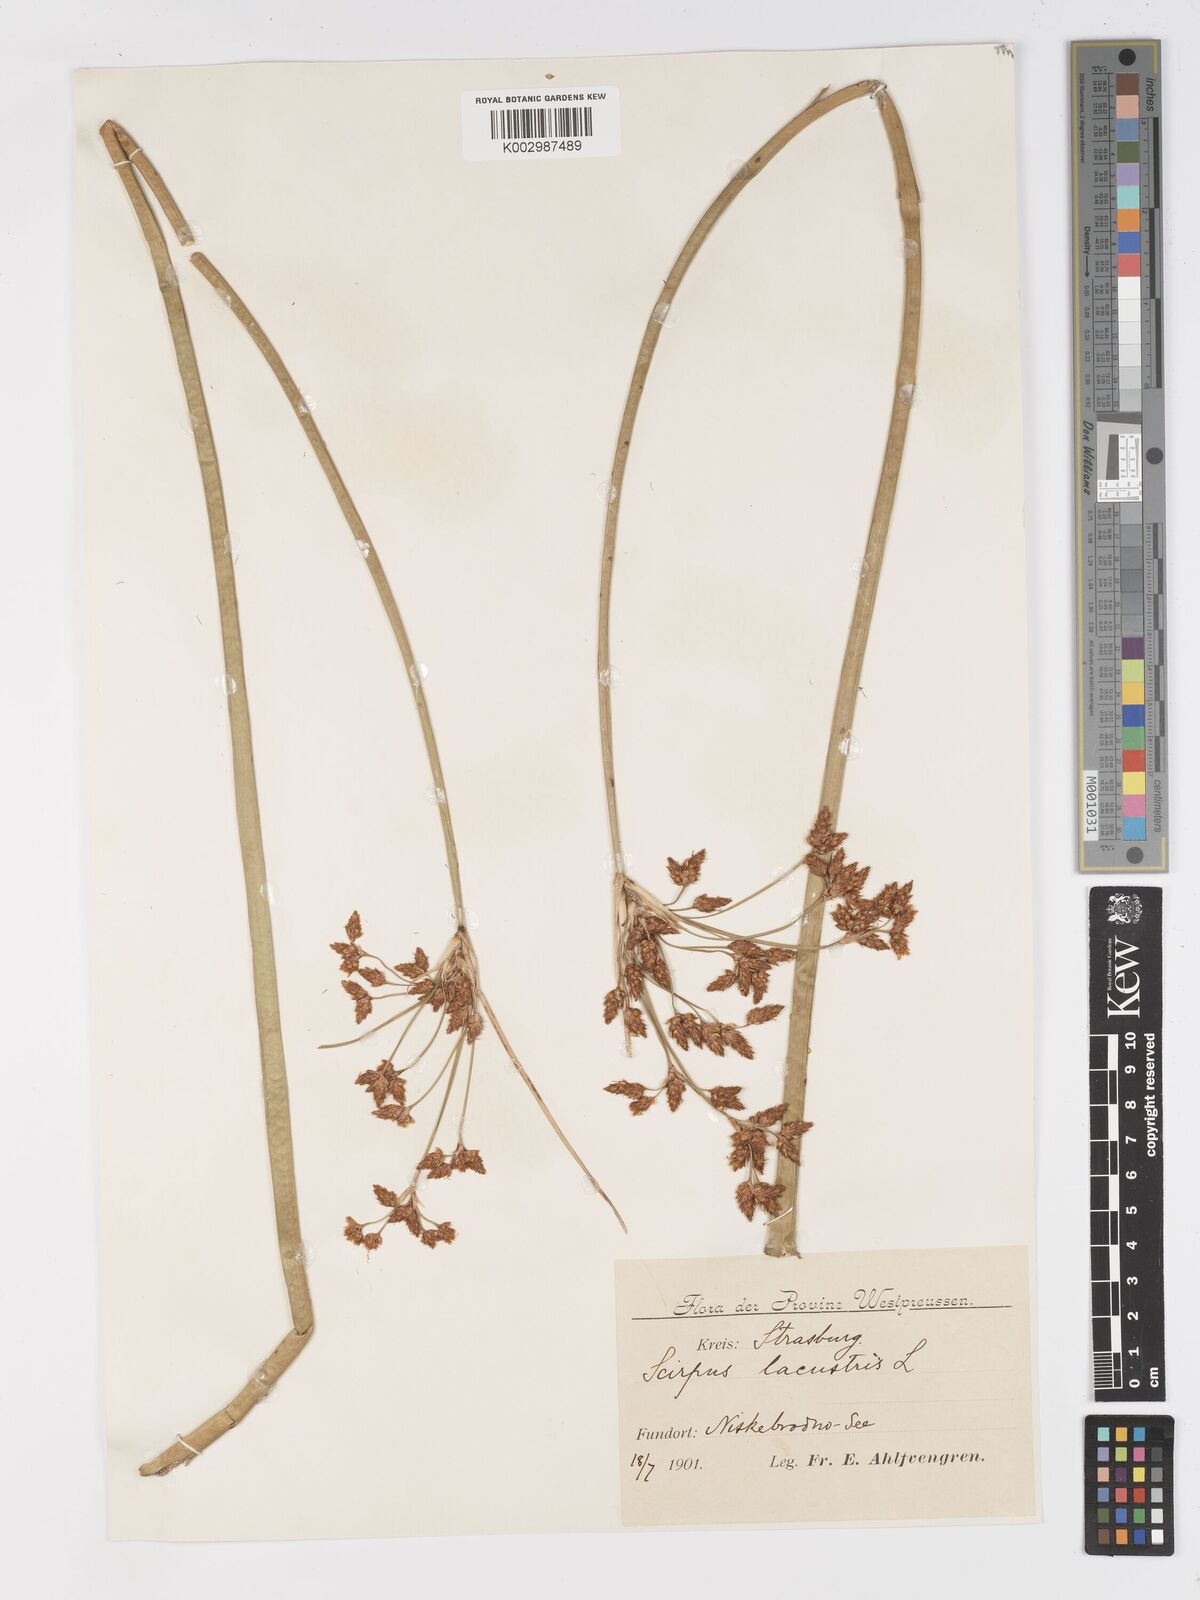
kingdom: Plantae
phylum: Tracheophyta
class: Liliopsida
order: Poales
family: Cyperaceae
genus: Schoenoplectus
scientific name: Schoenoplectus lacustris
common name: Common club-rush
